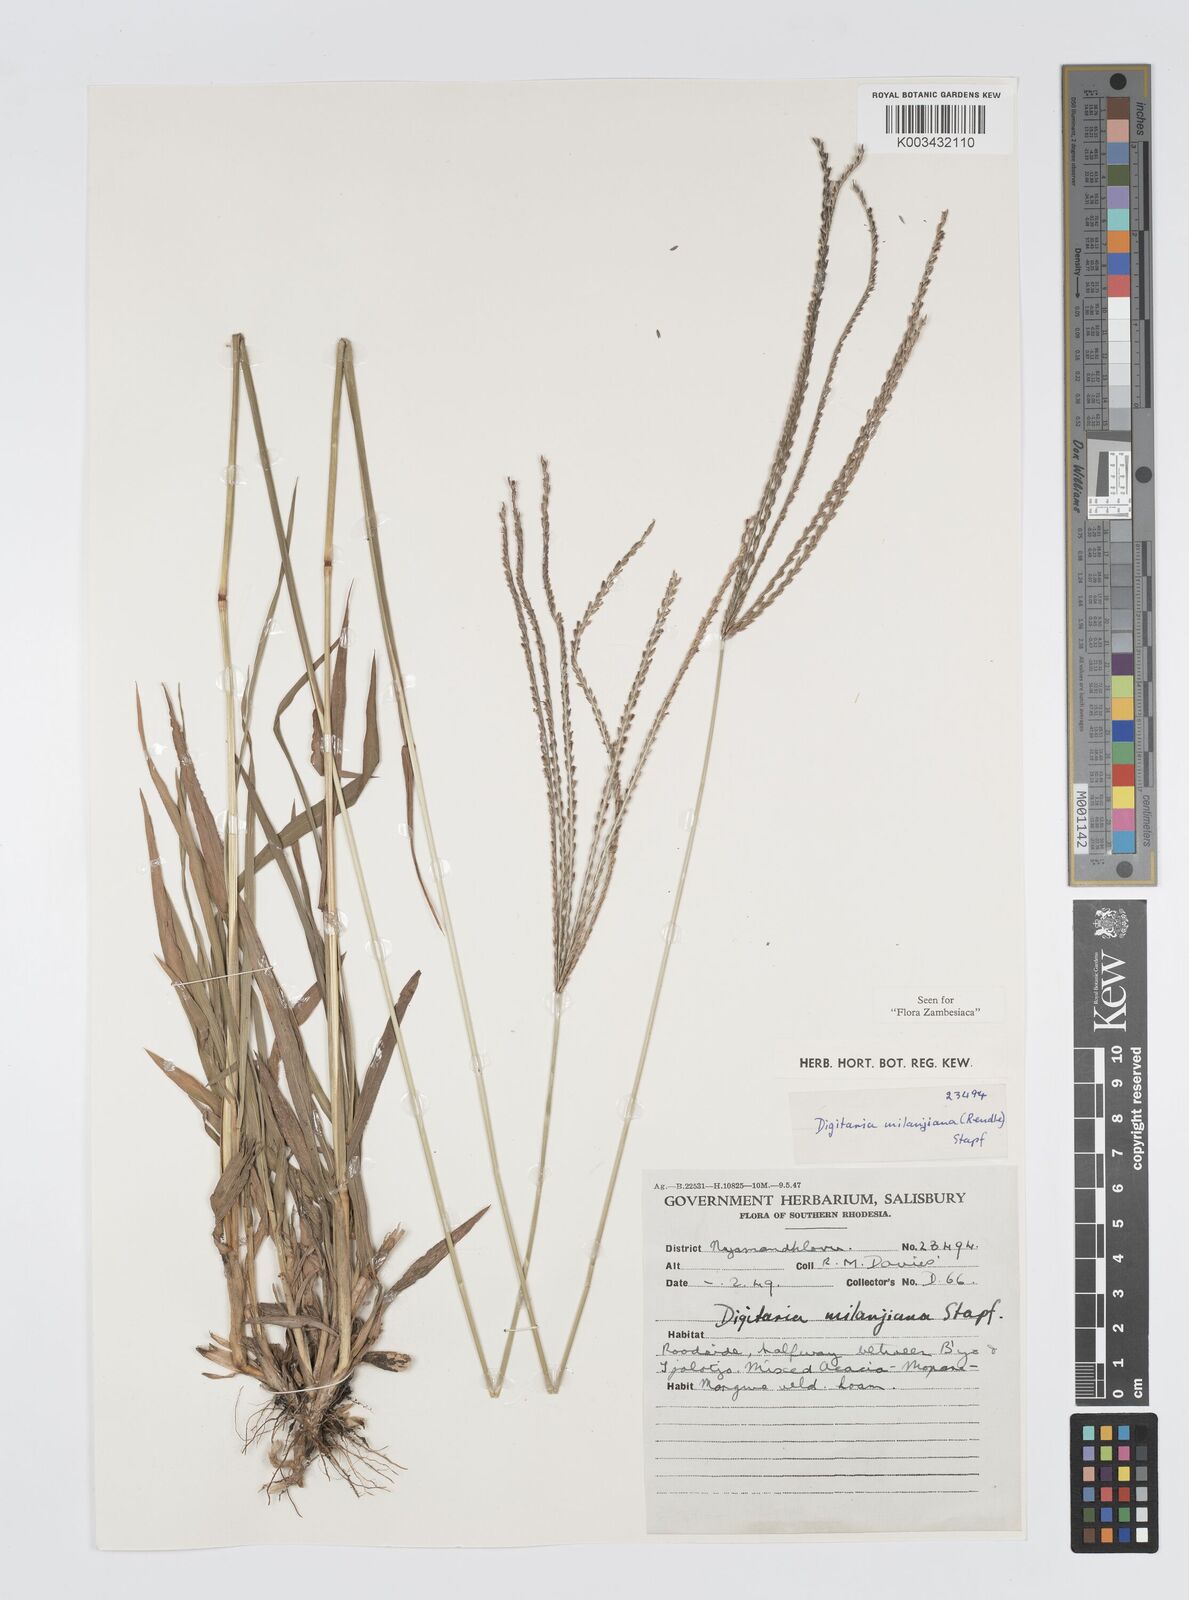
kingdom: Plantae
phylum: Tracheophyta
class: Liliopsida
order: Poales
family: Poaceae
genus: Digitaria
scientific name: Digitaria milanjiana
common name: Madagascar crabgrass
